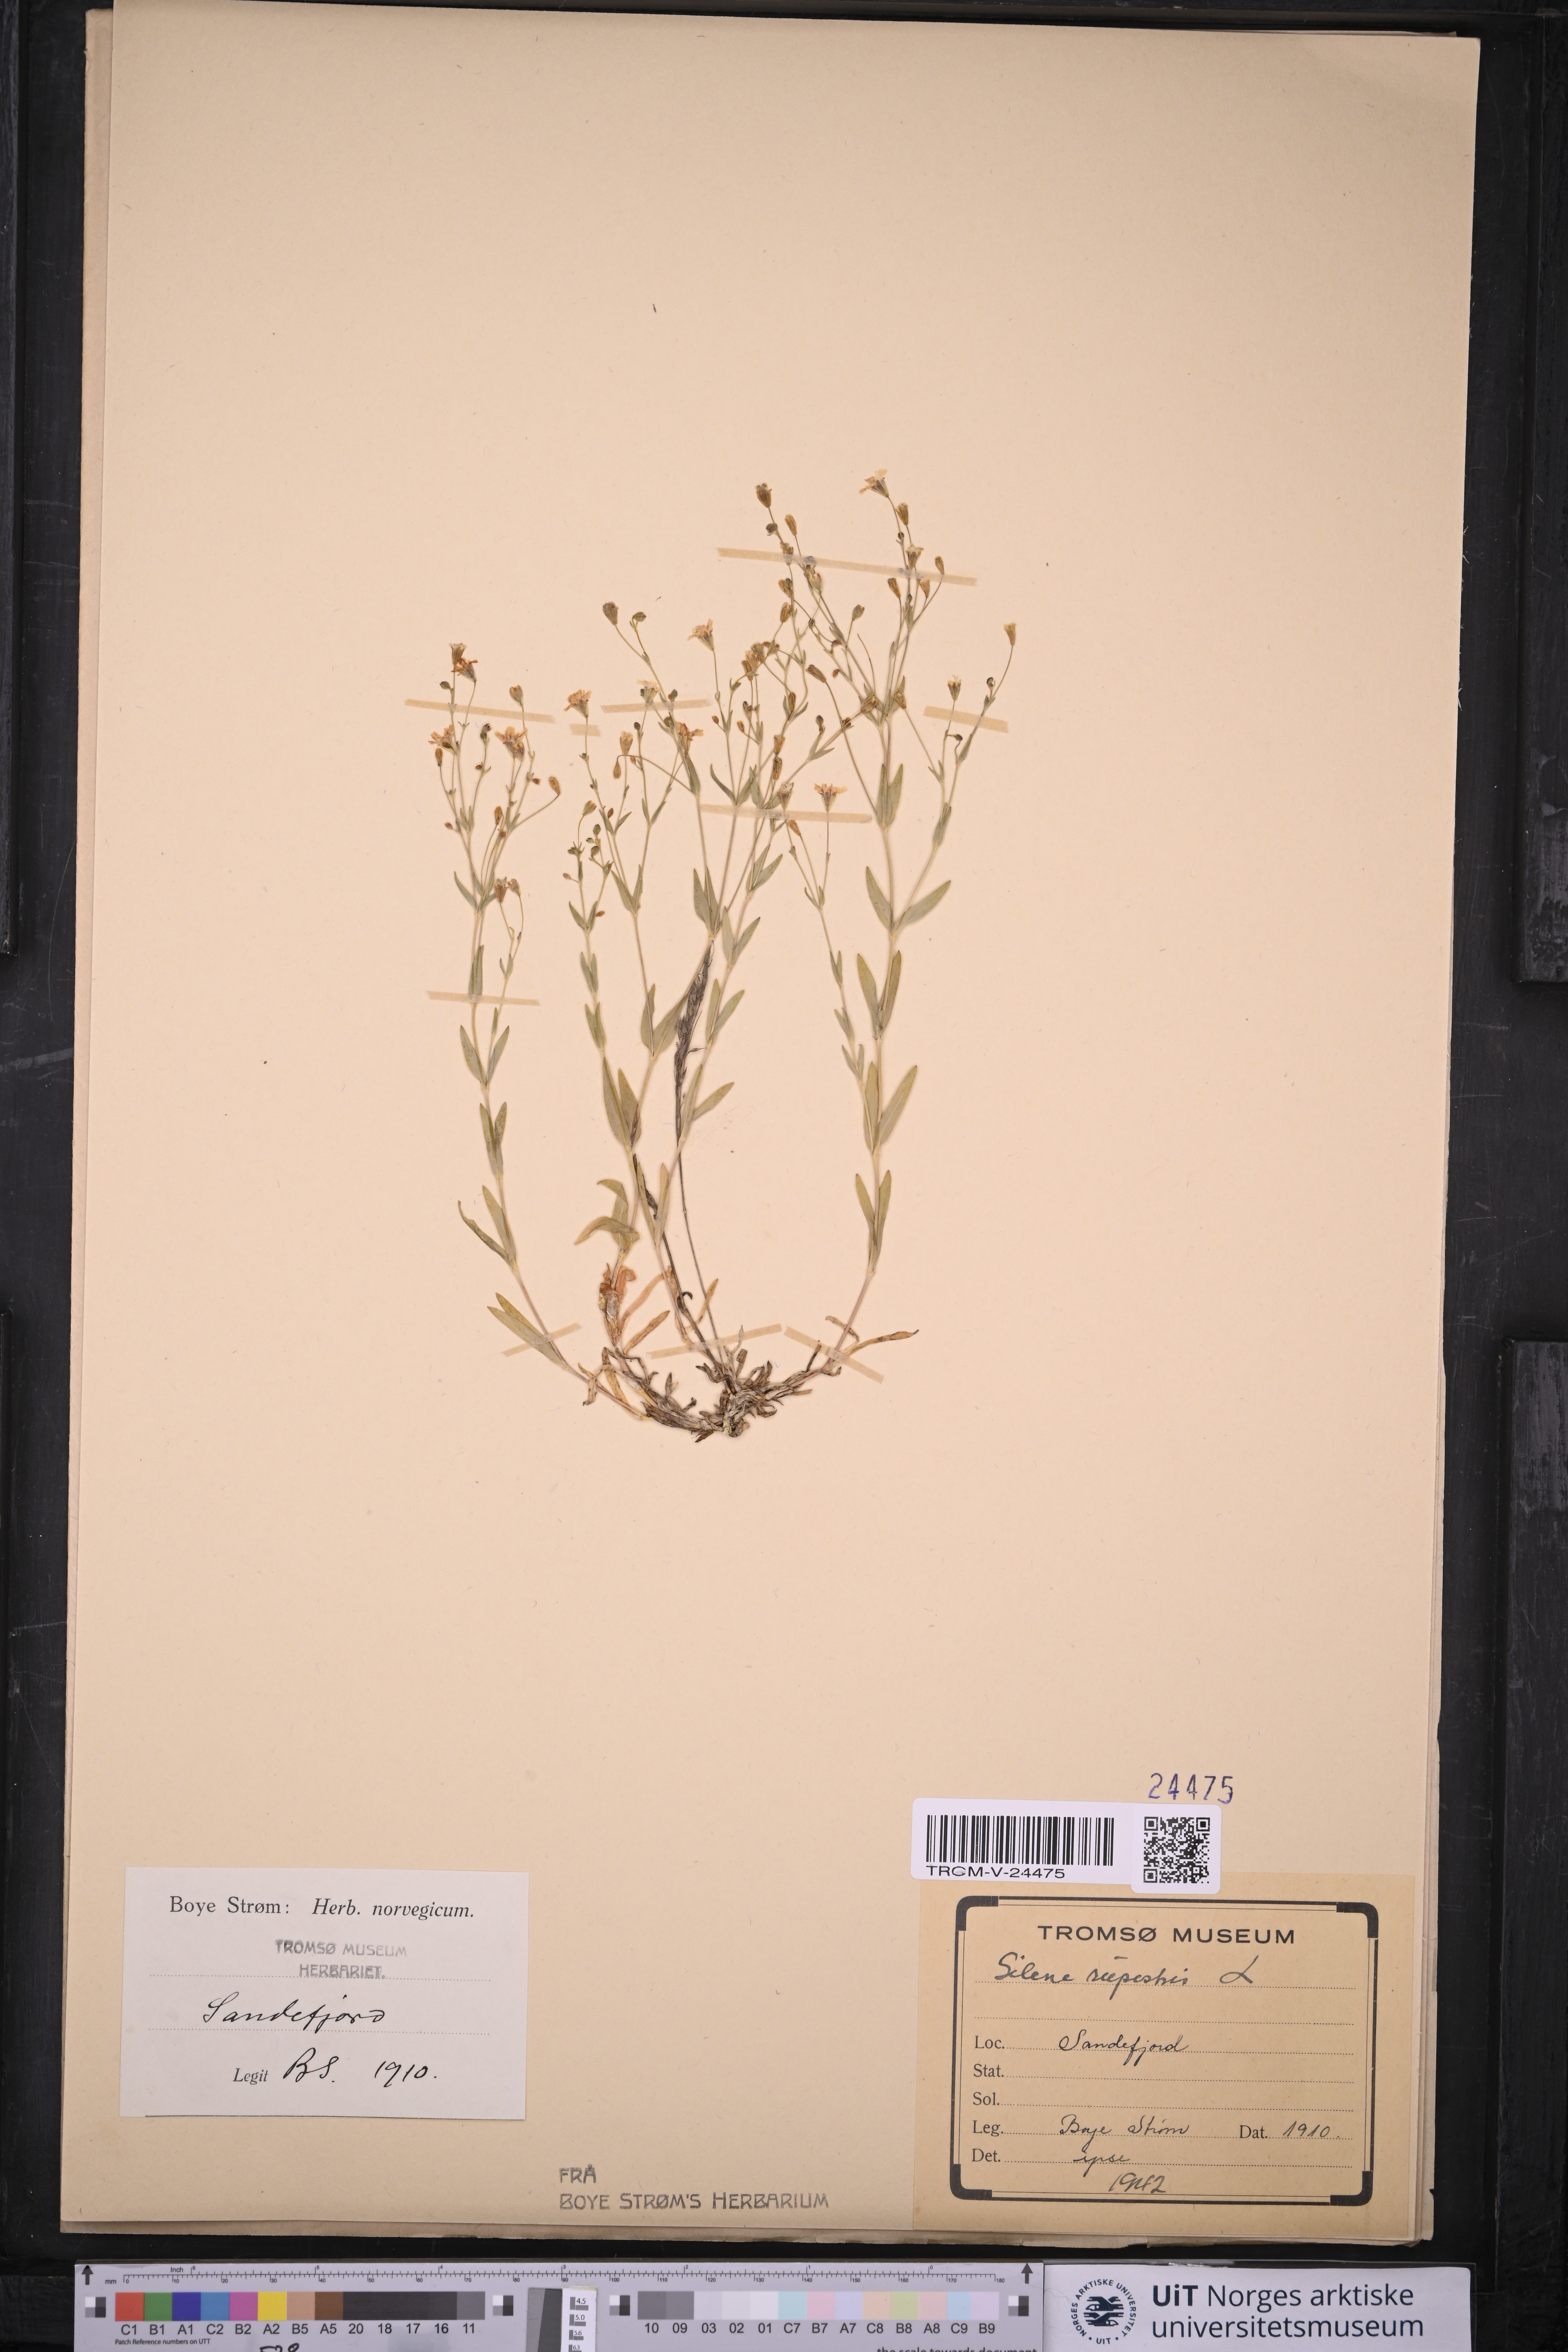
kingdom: Plantae
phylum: Tracheophyta
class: Magnoliopsida
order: Caryophyllales
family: Caryophyllaceae
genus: Atocion
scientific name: Atocion rupestre
